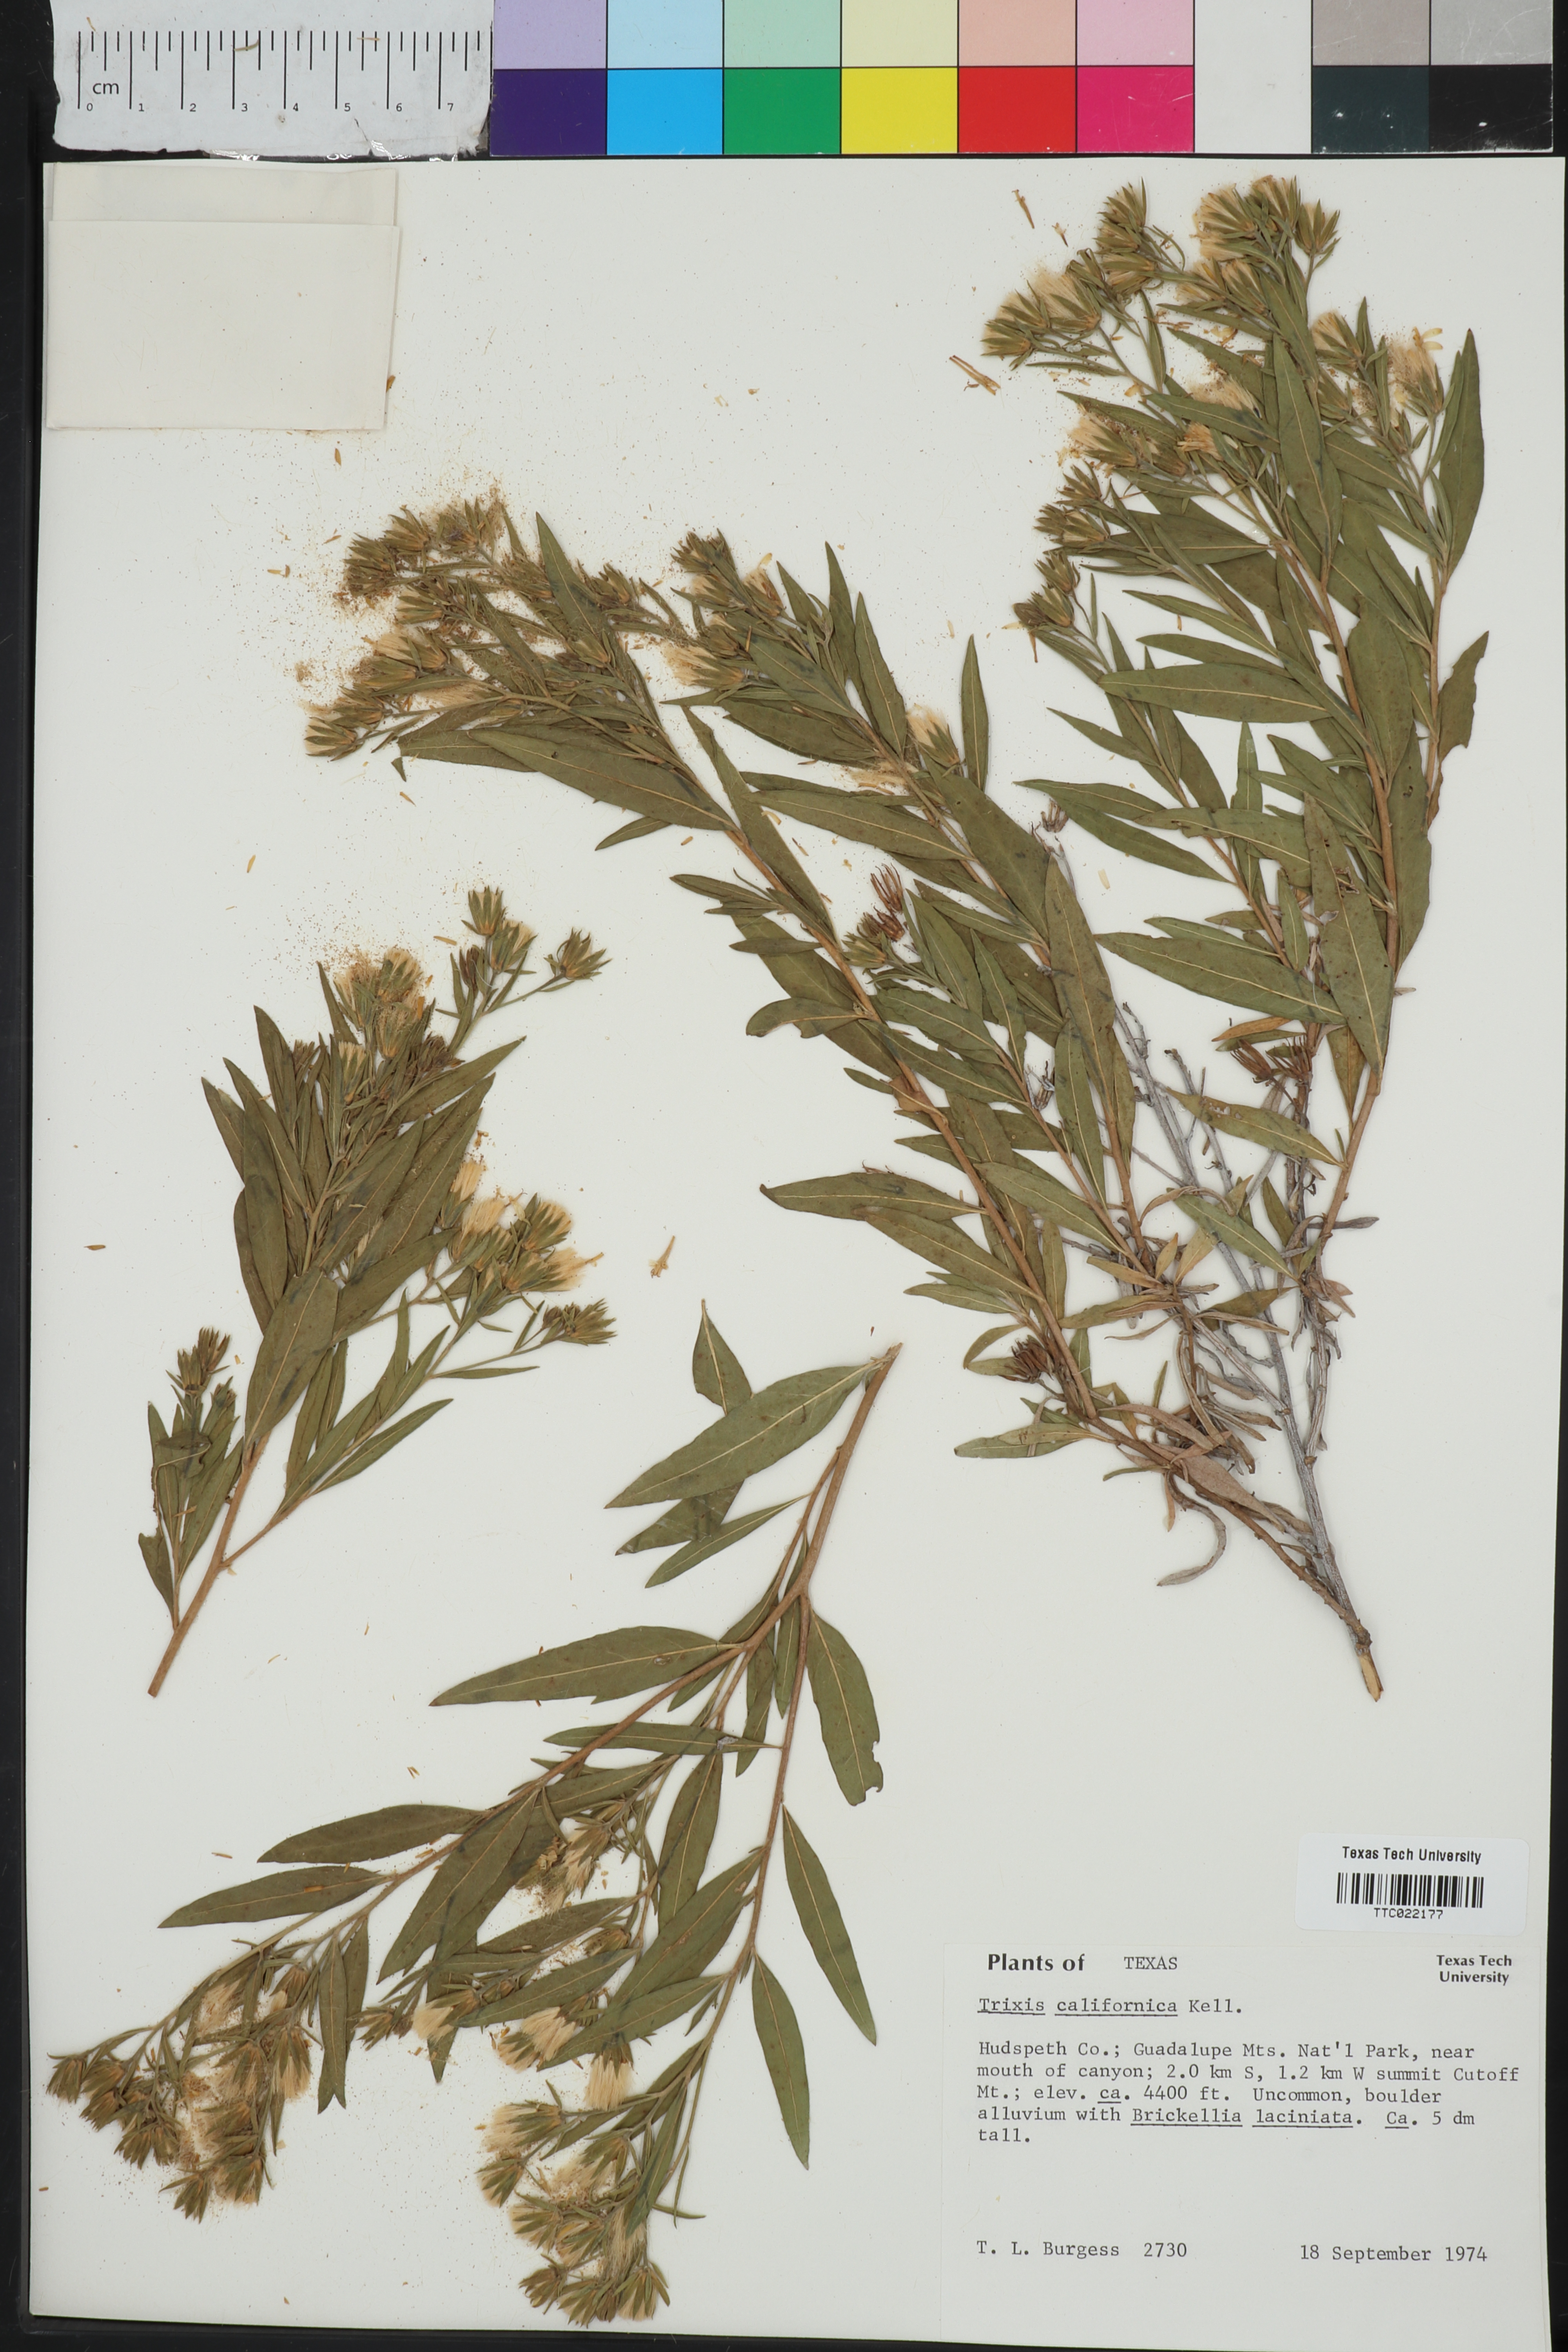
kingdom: Plantae
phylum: Tracheophyta
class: Magnoliopsida
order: Asterales
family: Asteraceae
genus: Trixis
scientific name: Trixis californica
